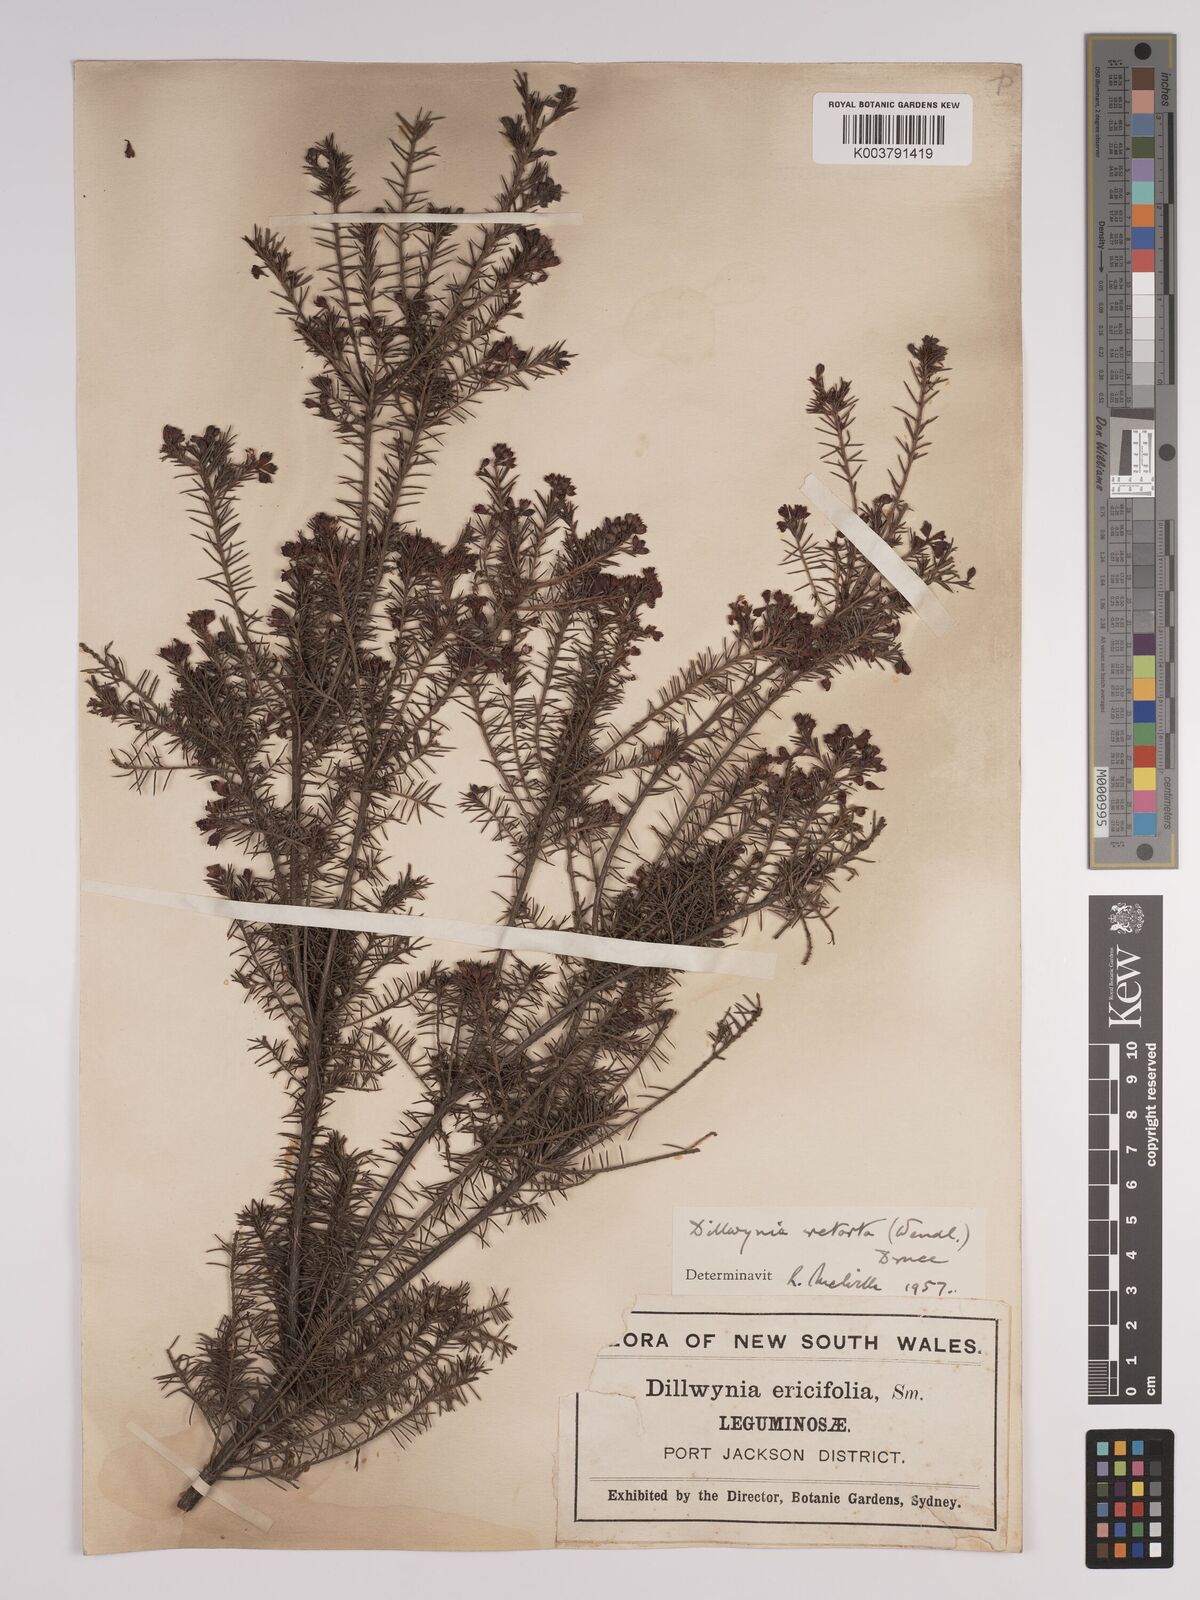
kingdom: Plantae
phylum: Tracheophyta
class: Magnoliopsida
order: Fabales
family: Fabaceae
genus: Dillwynia
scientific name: Dillwynia retorta
